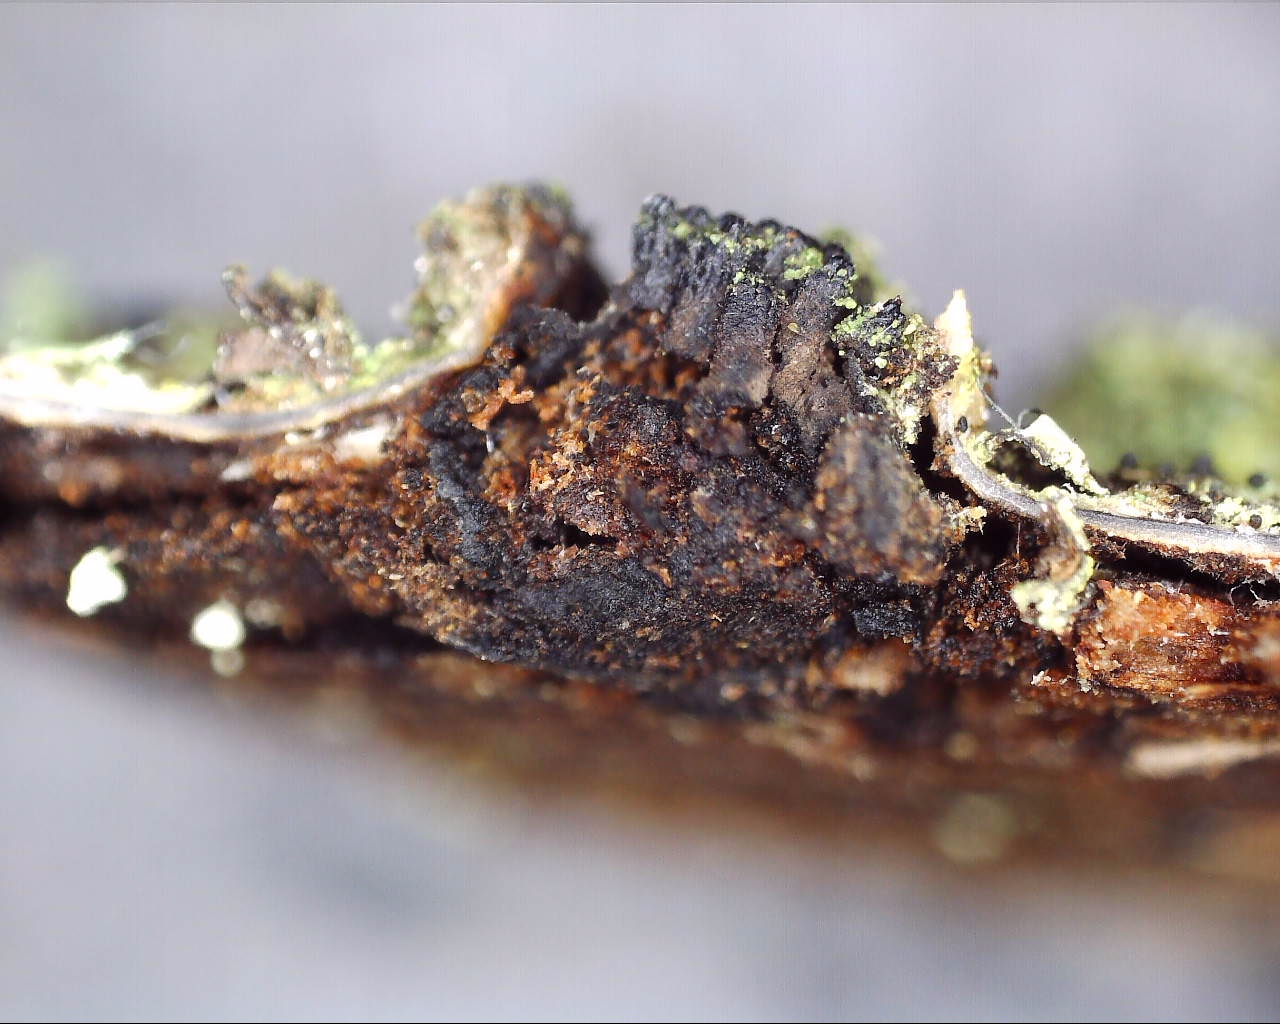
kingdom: Fungi
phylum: Ascomycota
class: Sordariomycetes
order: Xylariales
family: Diatrypaceae
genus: Eutypella
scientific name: Eutypella sorbi
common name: rønne-kulskorpe
